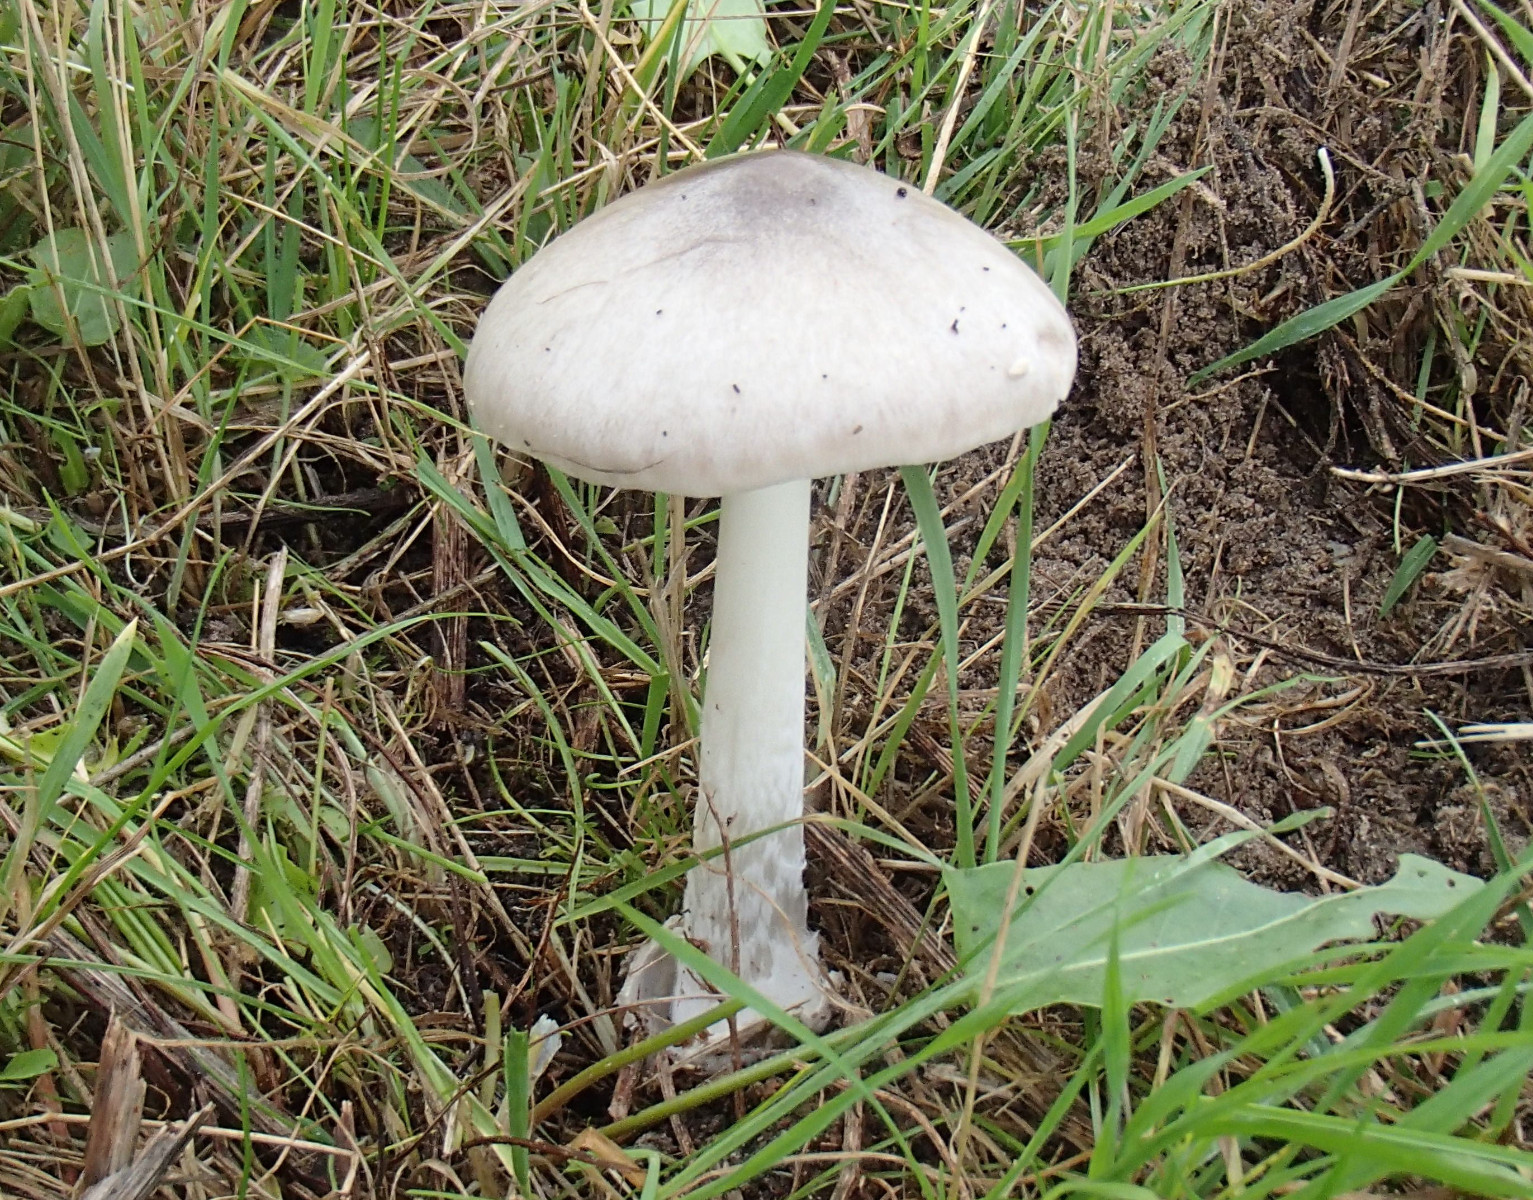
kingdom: Fungi
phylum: Basidiomycota
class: Agaricomycetes
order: Agaricales
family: Pluteaceae
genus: Volvopluteus
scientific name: Volvopluteus gloiocephalus
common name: høj posesvamp
